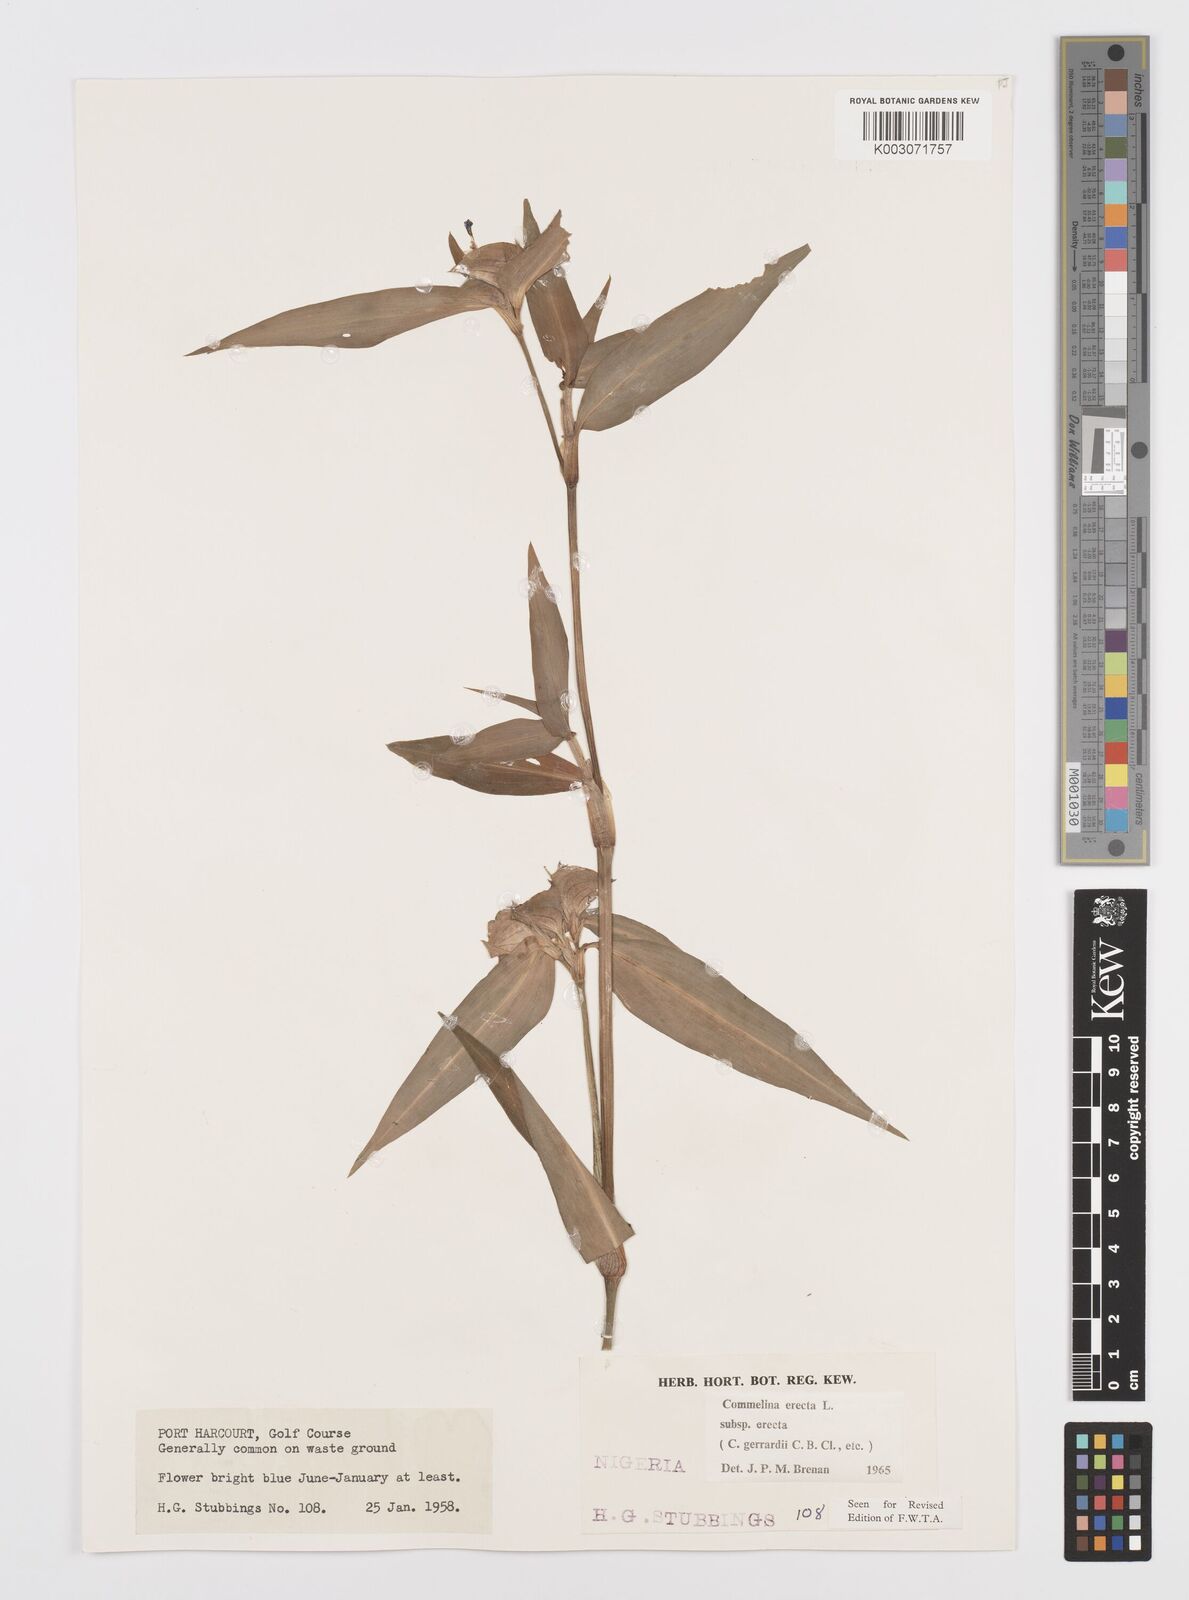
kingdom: Plantae
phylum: Tracheophyta
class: Liliopsida
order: Commelinales
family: Commelinaceae
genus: Commelina
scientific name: Commelina erecta
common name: Blousel blommetjie
